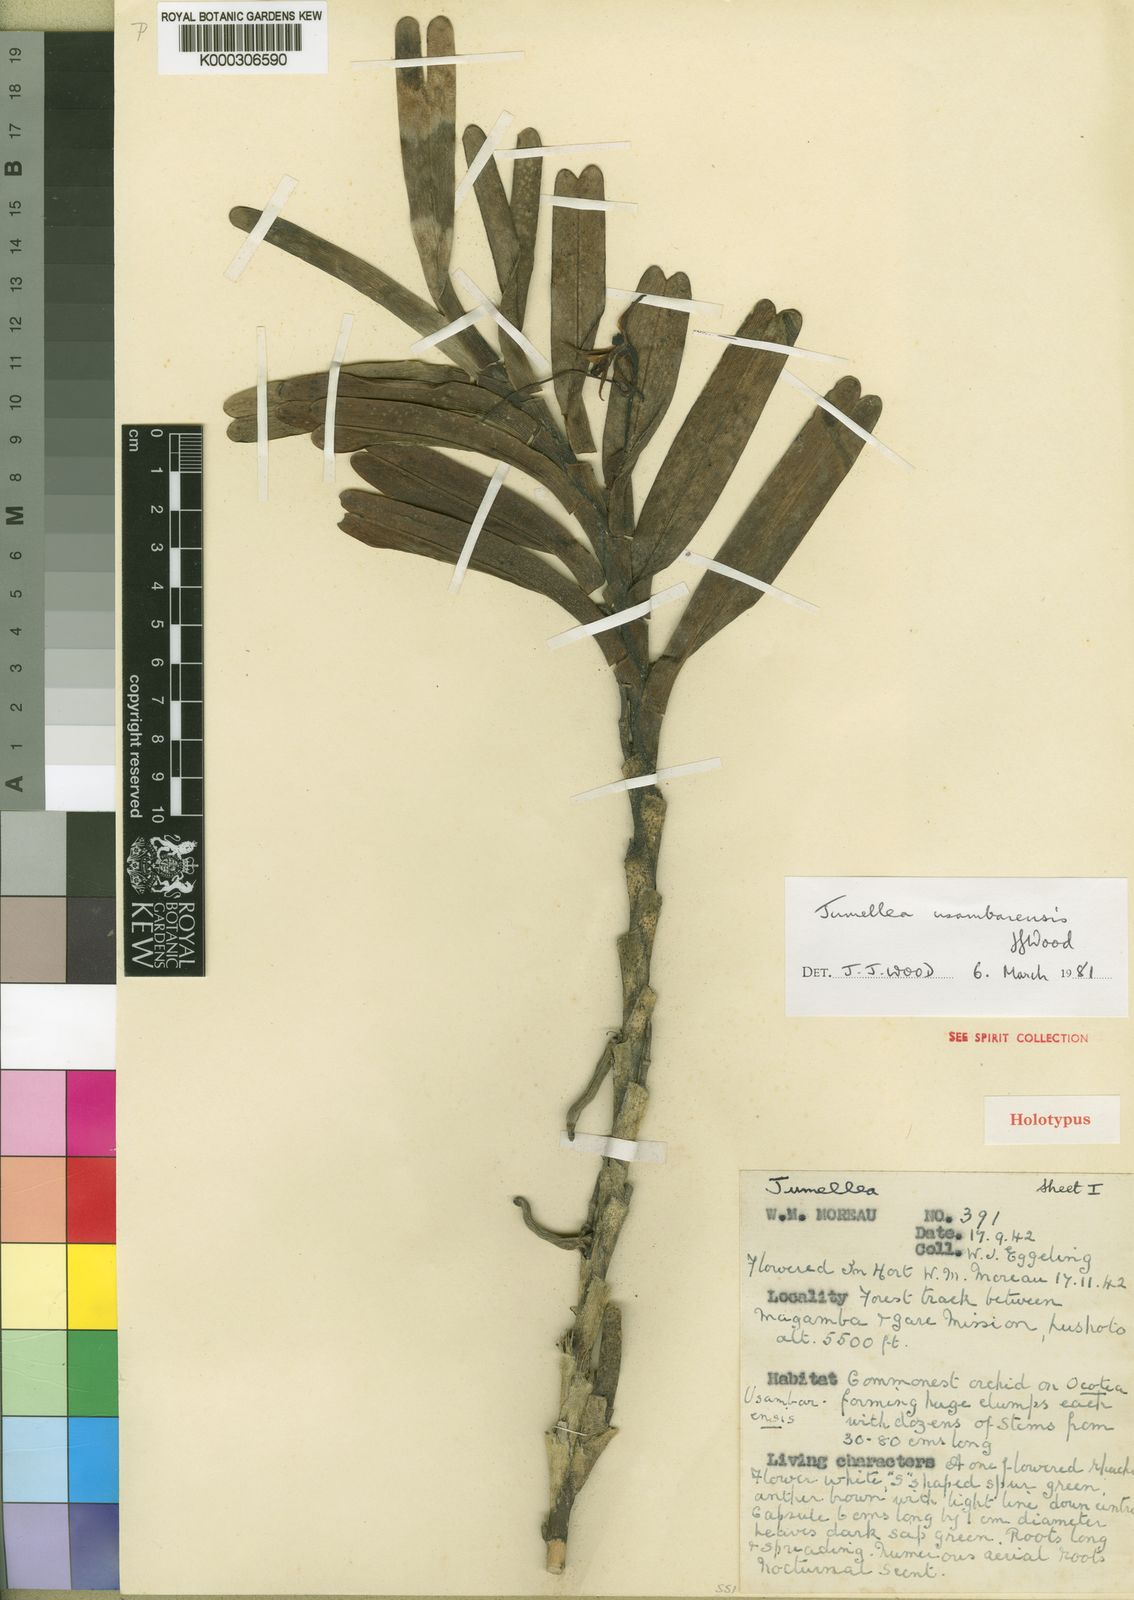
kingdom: Plantae
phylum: Tracheophyta
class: Liliopsida
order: Asparagales
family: Orchidaceae
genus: Jumellea
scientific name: Jumellea usambarensis
